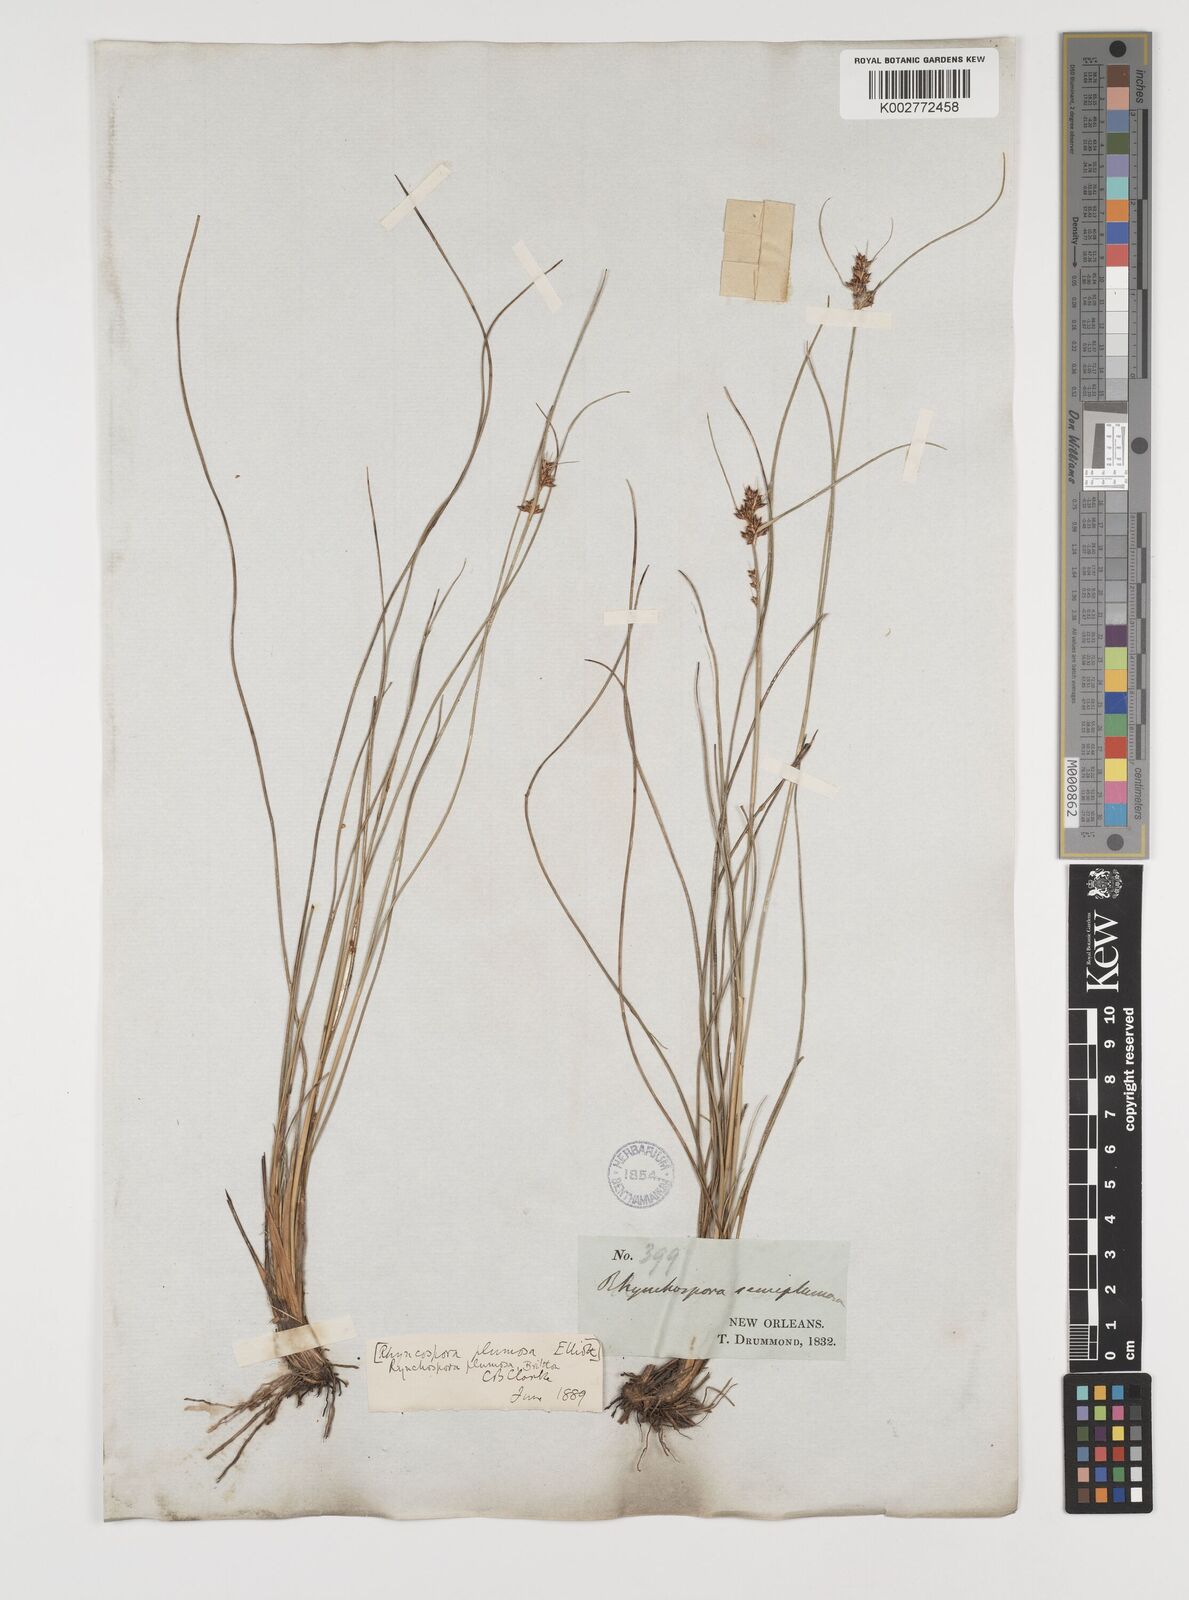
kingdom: Plantae
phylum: Tracheophyta
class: Liliopsida
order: Poales
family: Cyperaceae
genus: Rhynchospora
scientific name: Rhynchospora plumosa
